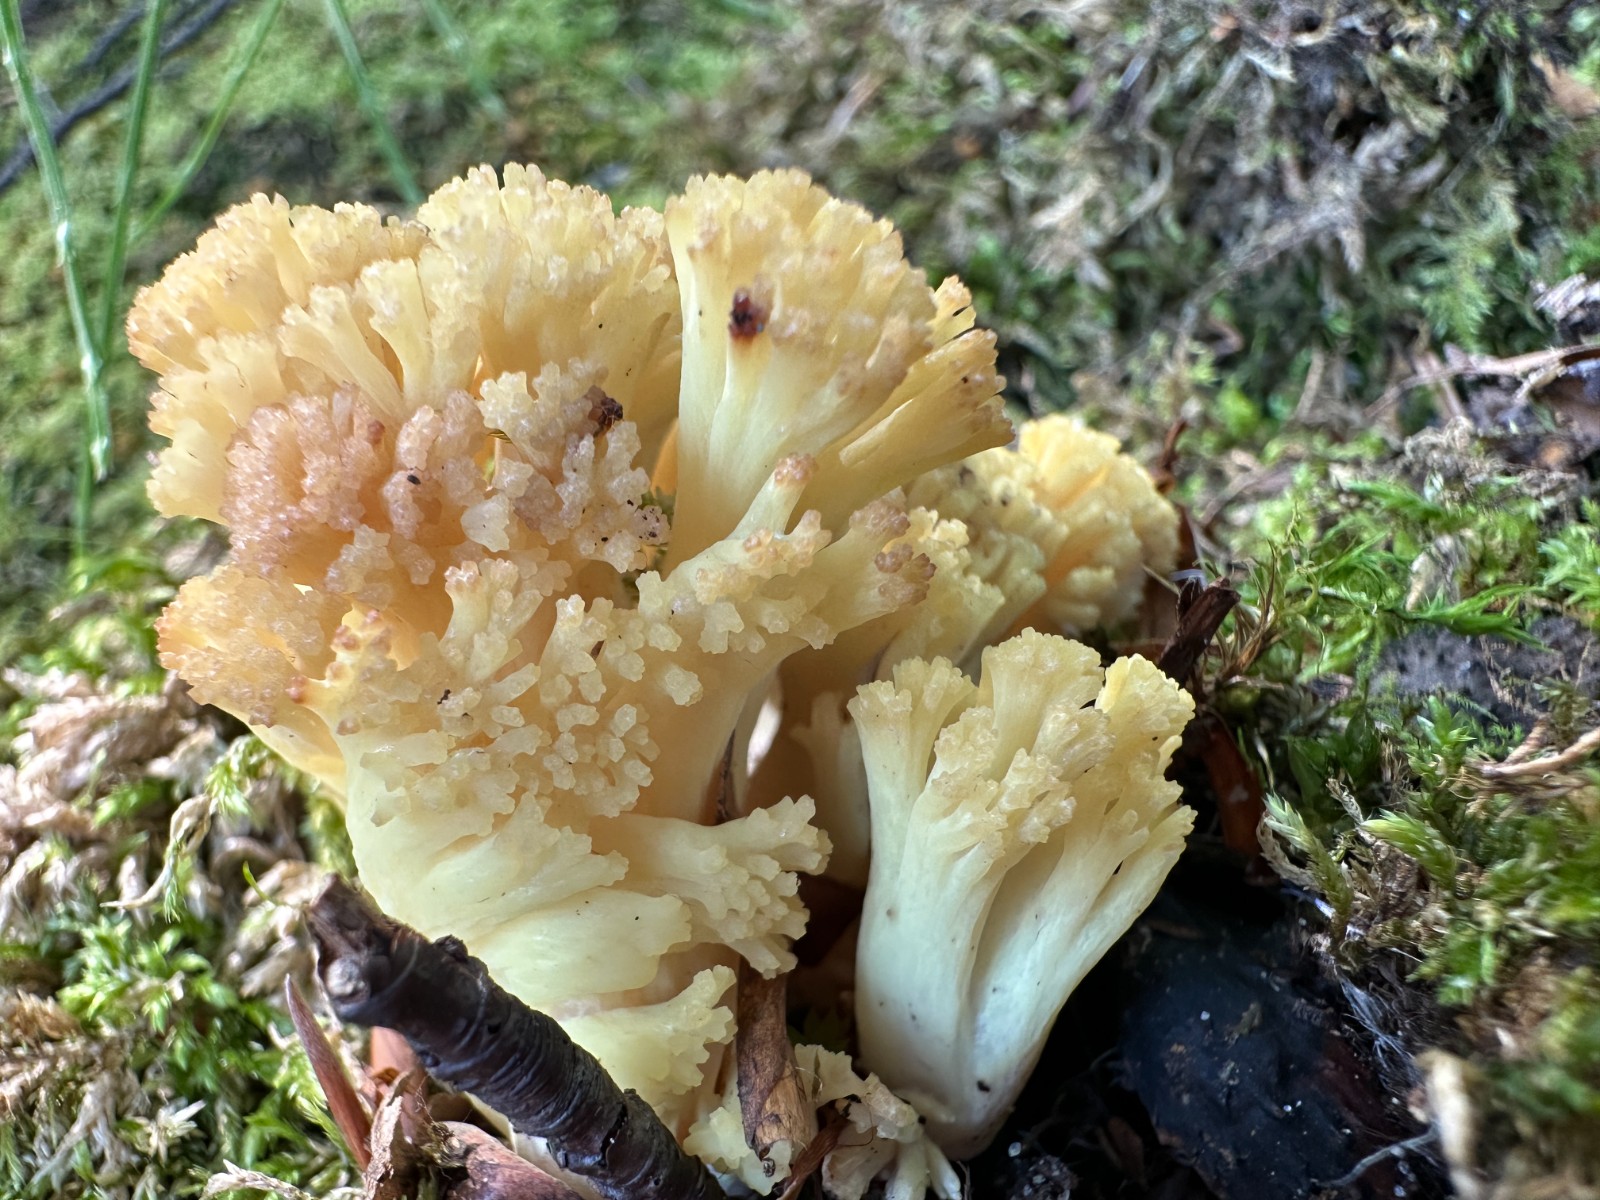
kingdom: Fungi
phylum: Basidiomycota
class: Agaricomycetes
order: Gomphales
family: Gomphaceae
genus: Ramaria
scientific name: Ramaria sanguinea
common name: blodplettet koralsvamp
